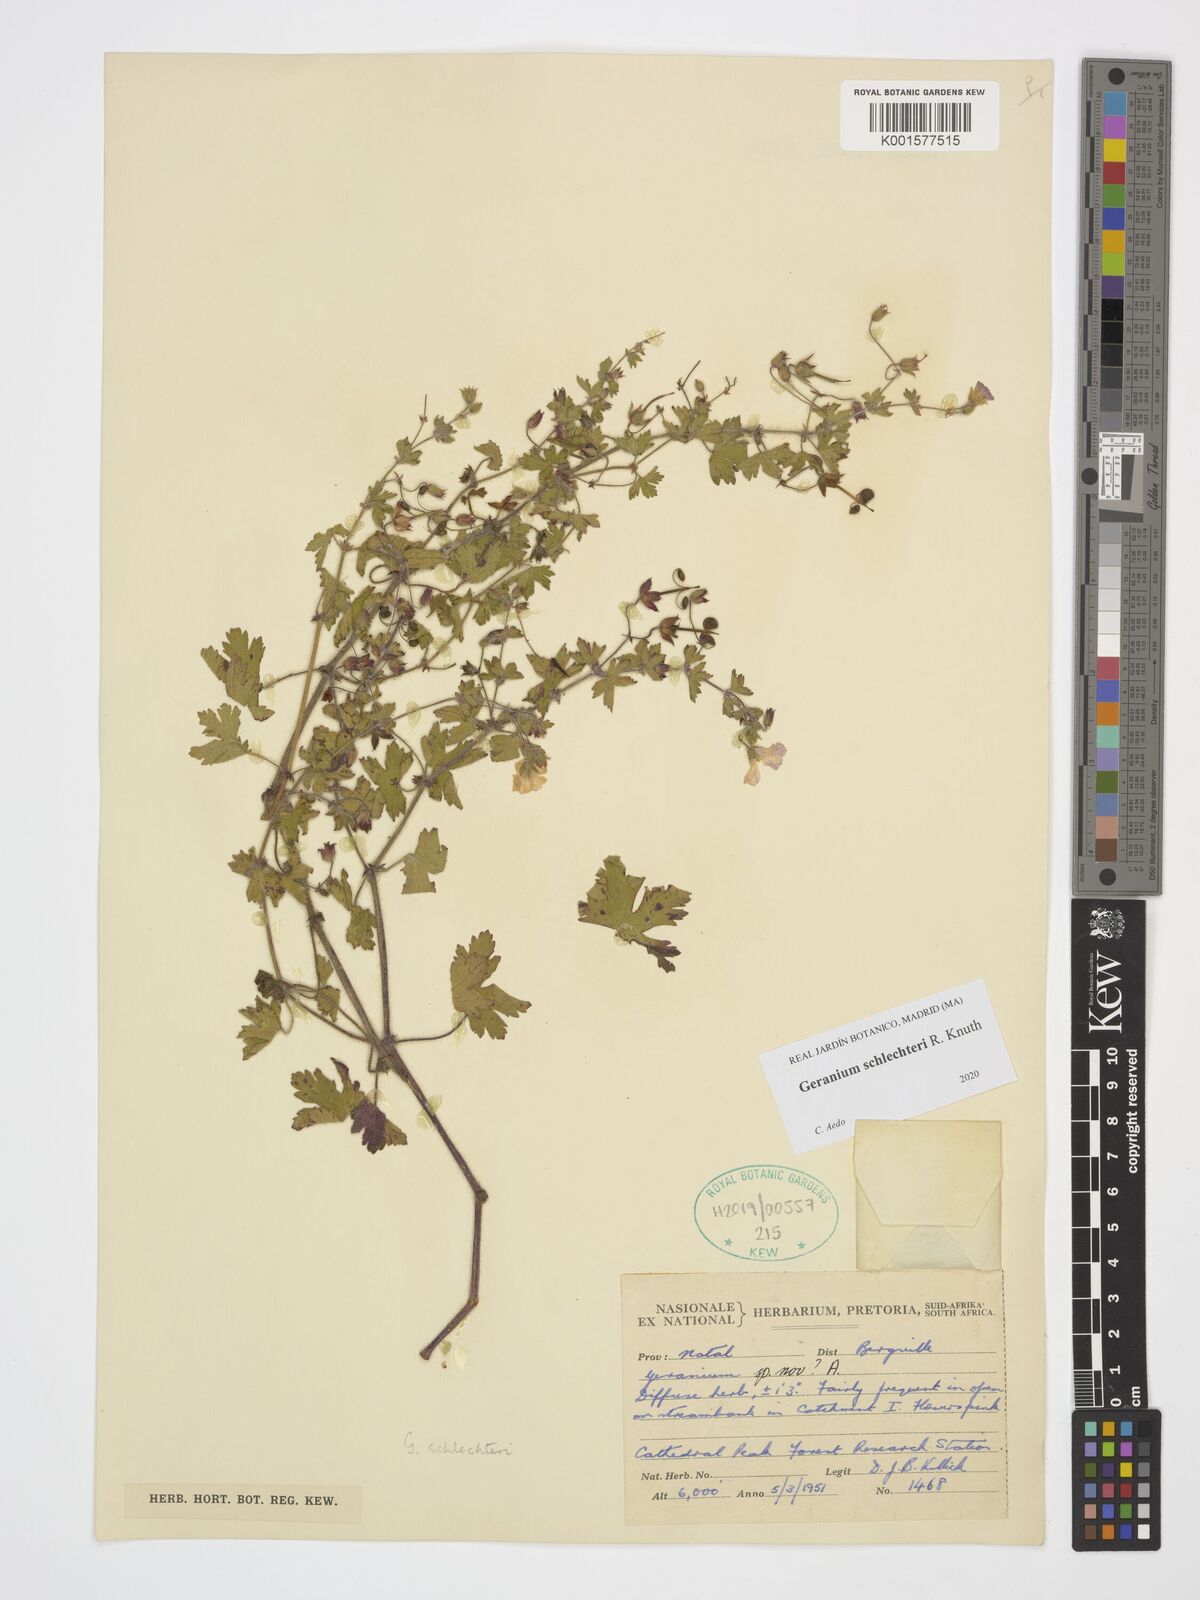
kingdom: Plantae
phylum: Tracheophyta
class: Magnoliopsida
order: Geraniales
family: Geraniaceae
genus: Geranium
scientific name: Geranium schlechteri
